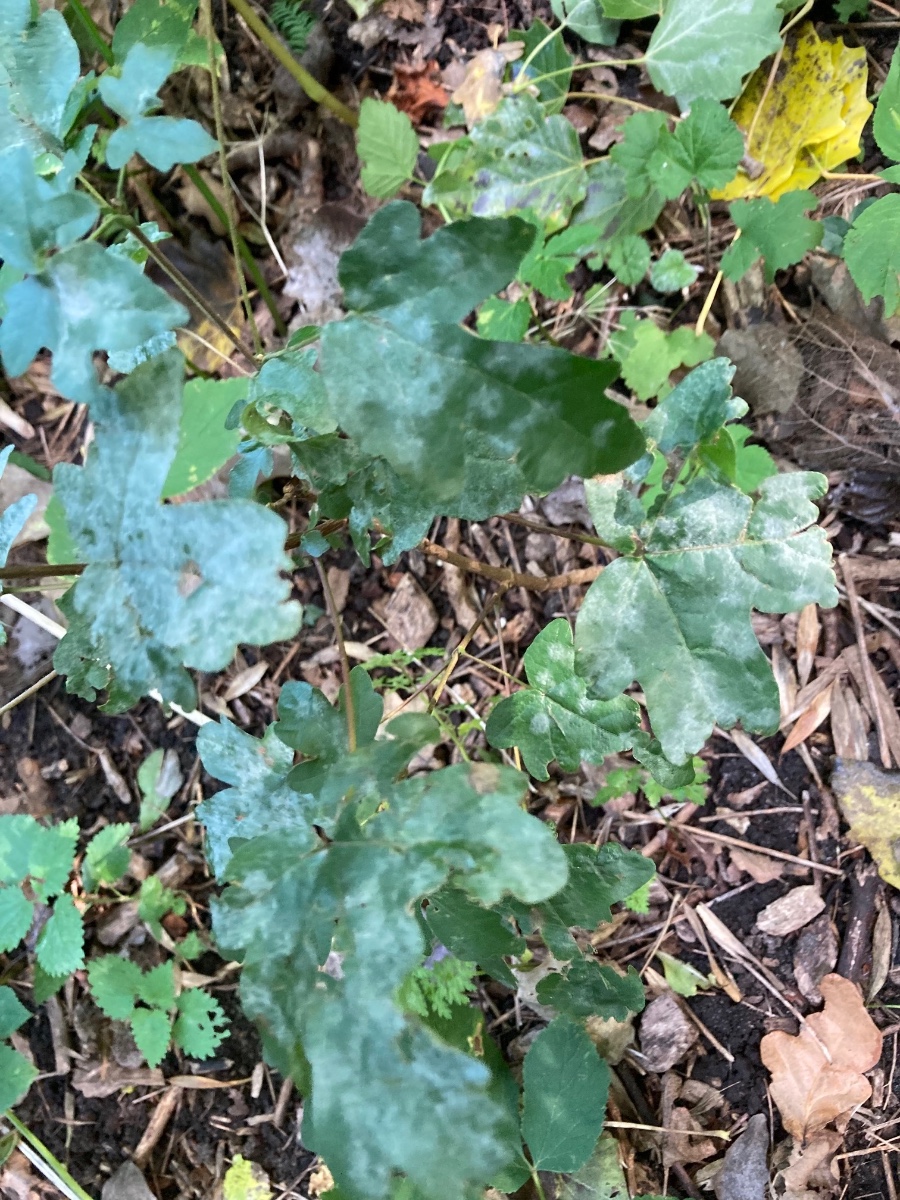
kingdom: Fungi
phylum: Ascomycota
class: Leotiomycetes
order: Helotiales
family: Erysiphaceae
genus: Sawadaea
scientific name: Sawadaea bicornis
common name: Maple mildew
